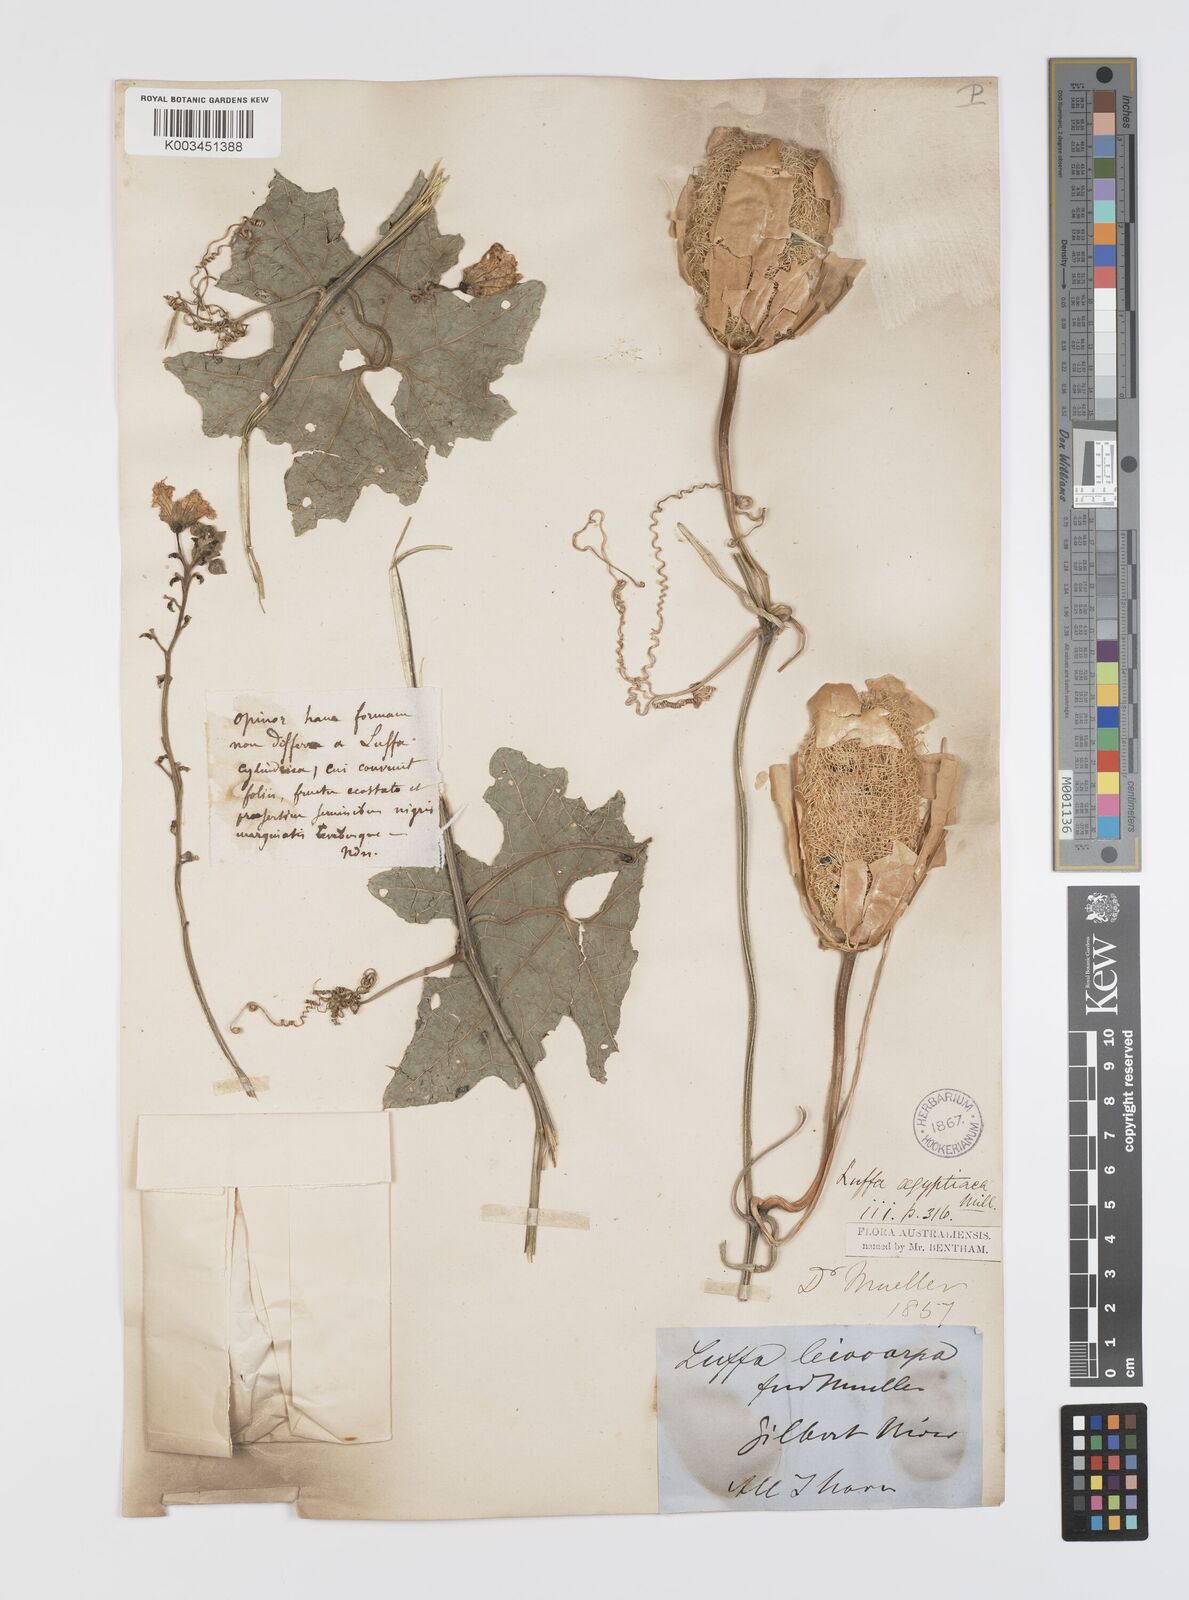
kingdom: Plantae
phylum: Tracheophyta
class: Magnoliopsida
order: Cucurbitales
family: Cucurbitaceae
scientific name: Cucurbitaceae
